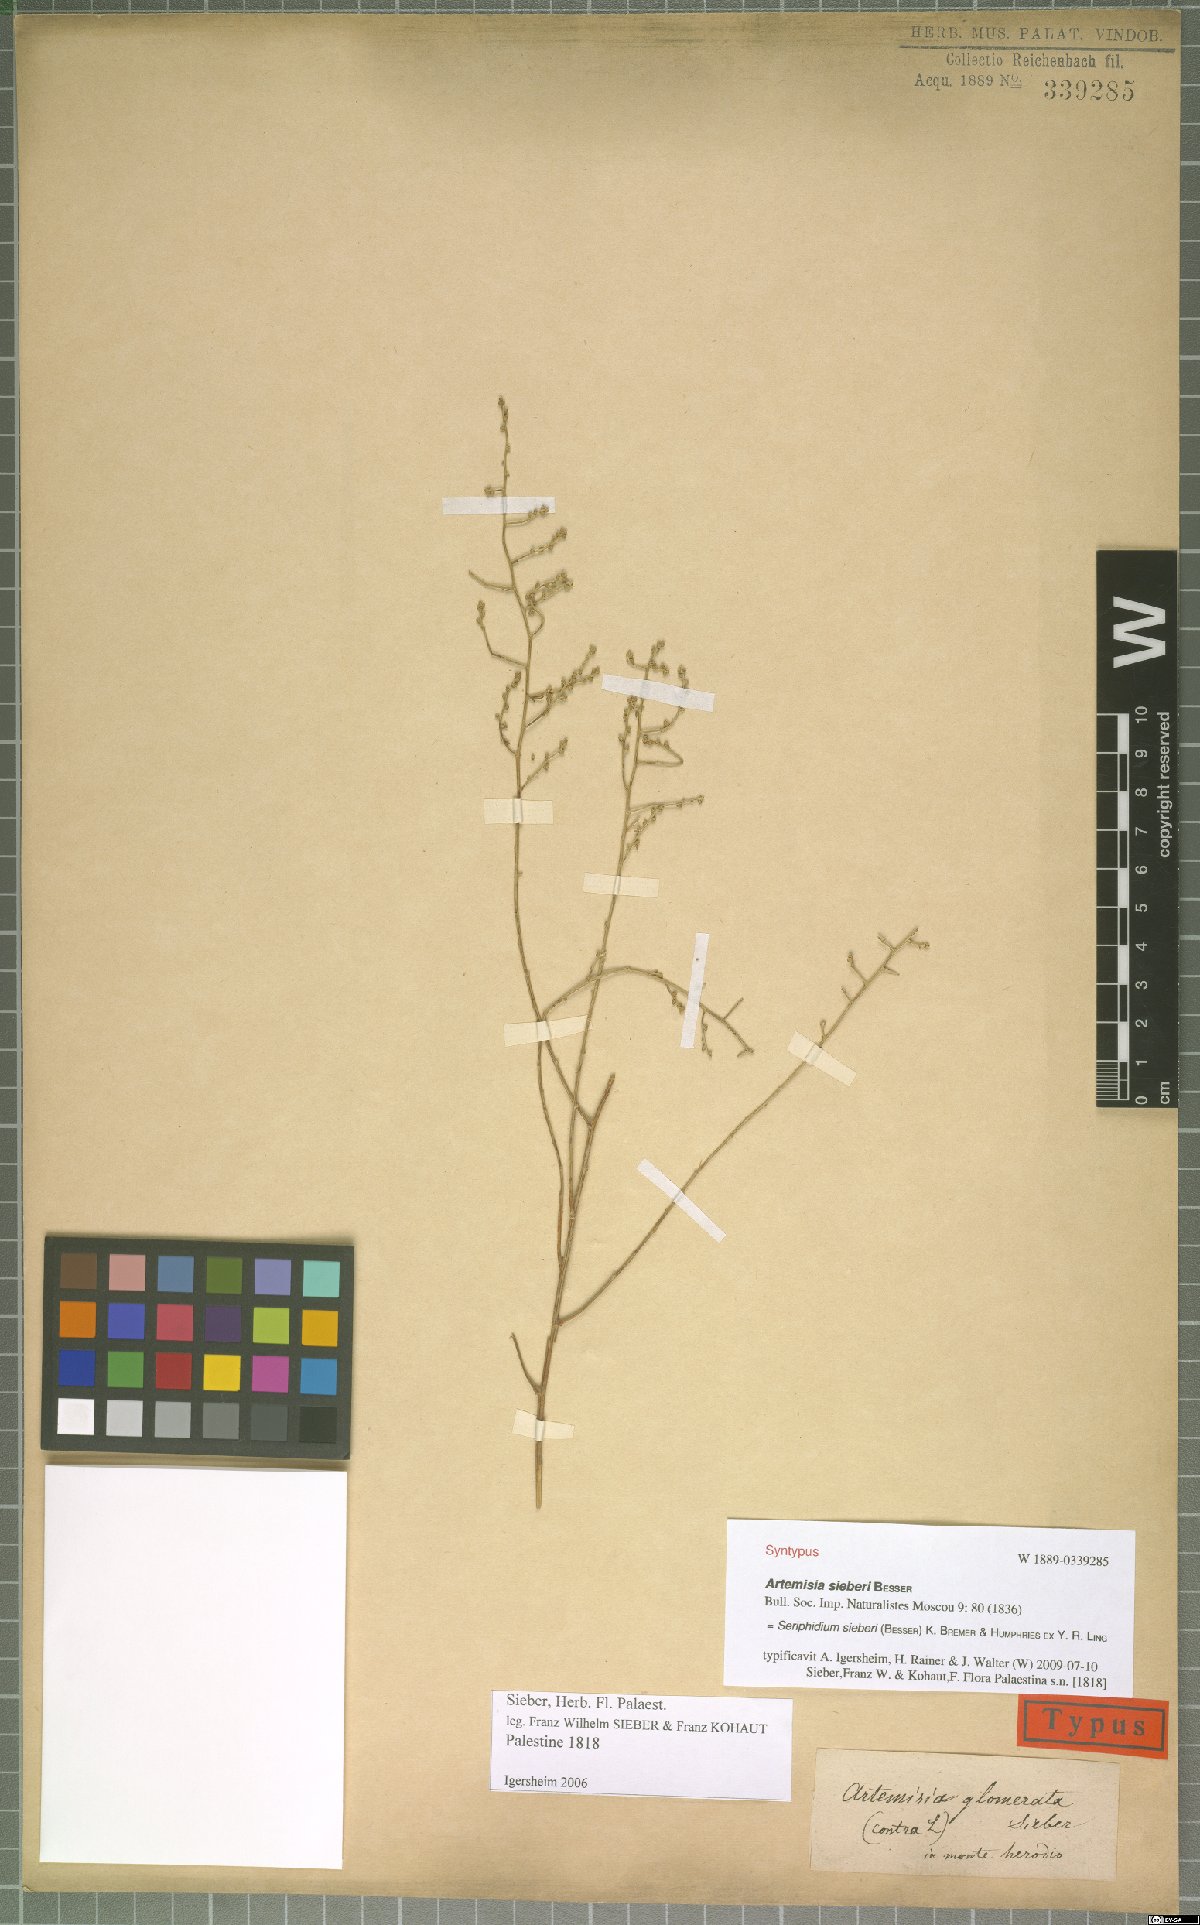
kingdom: Plantae
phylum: Tracheophyta
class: Magnoliopsida
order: Asterales
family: Asteraceae
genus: Artemisia
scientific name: Artemisia sieberi
